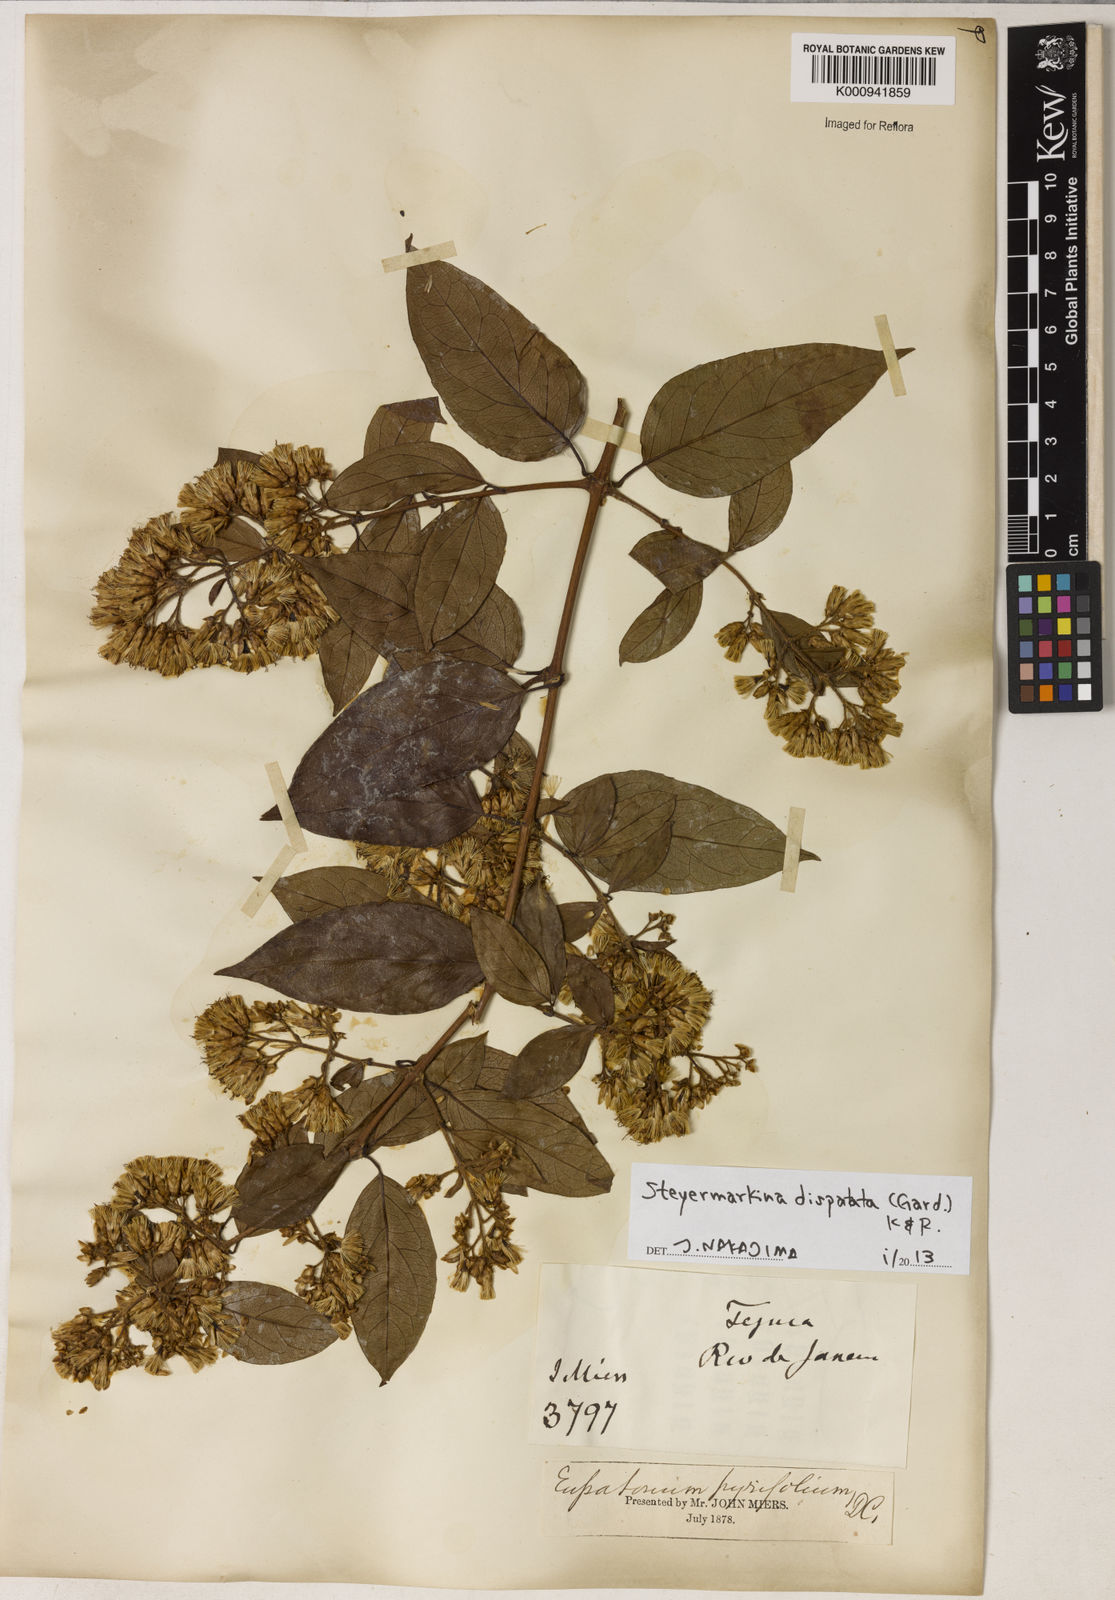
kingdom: Plantae
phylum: Tracheophyta
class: Magnoliopsida
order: Asterales
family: Asteraceae
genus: Steyermarkina
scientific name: Steyermarkina dispalata
